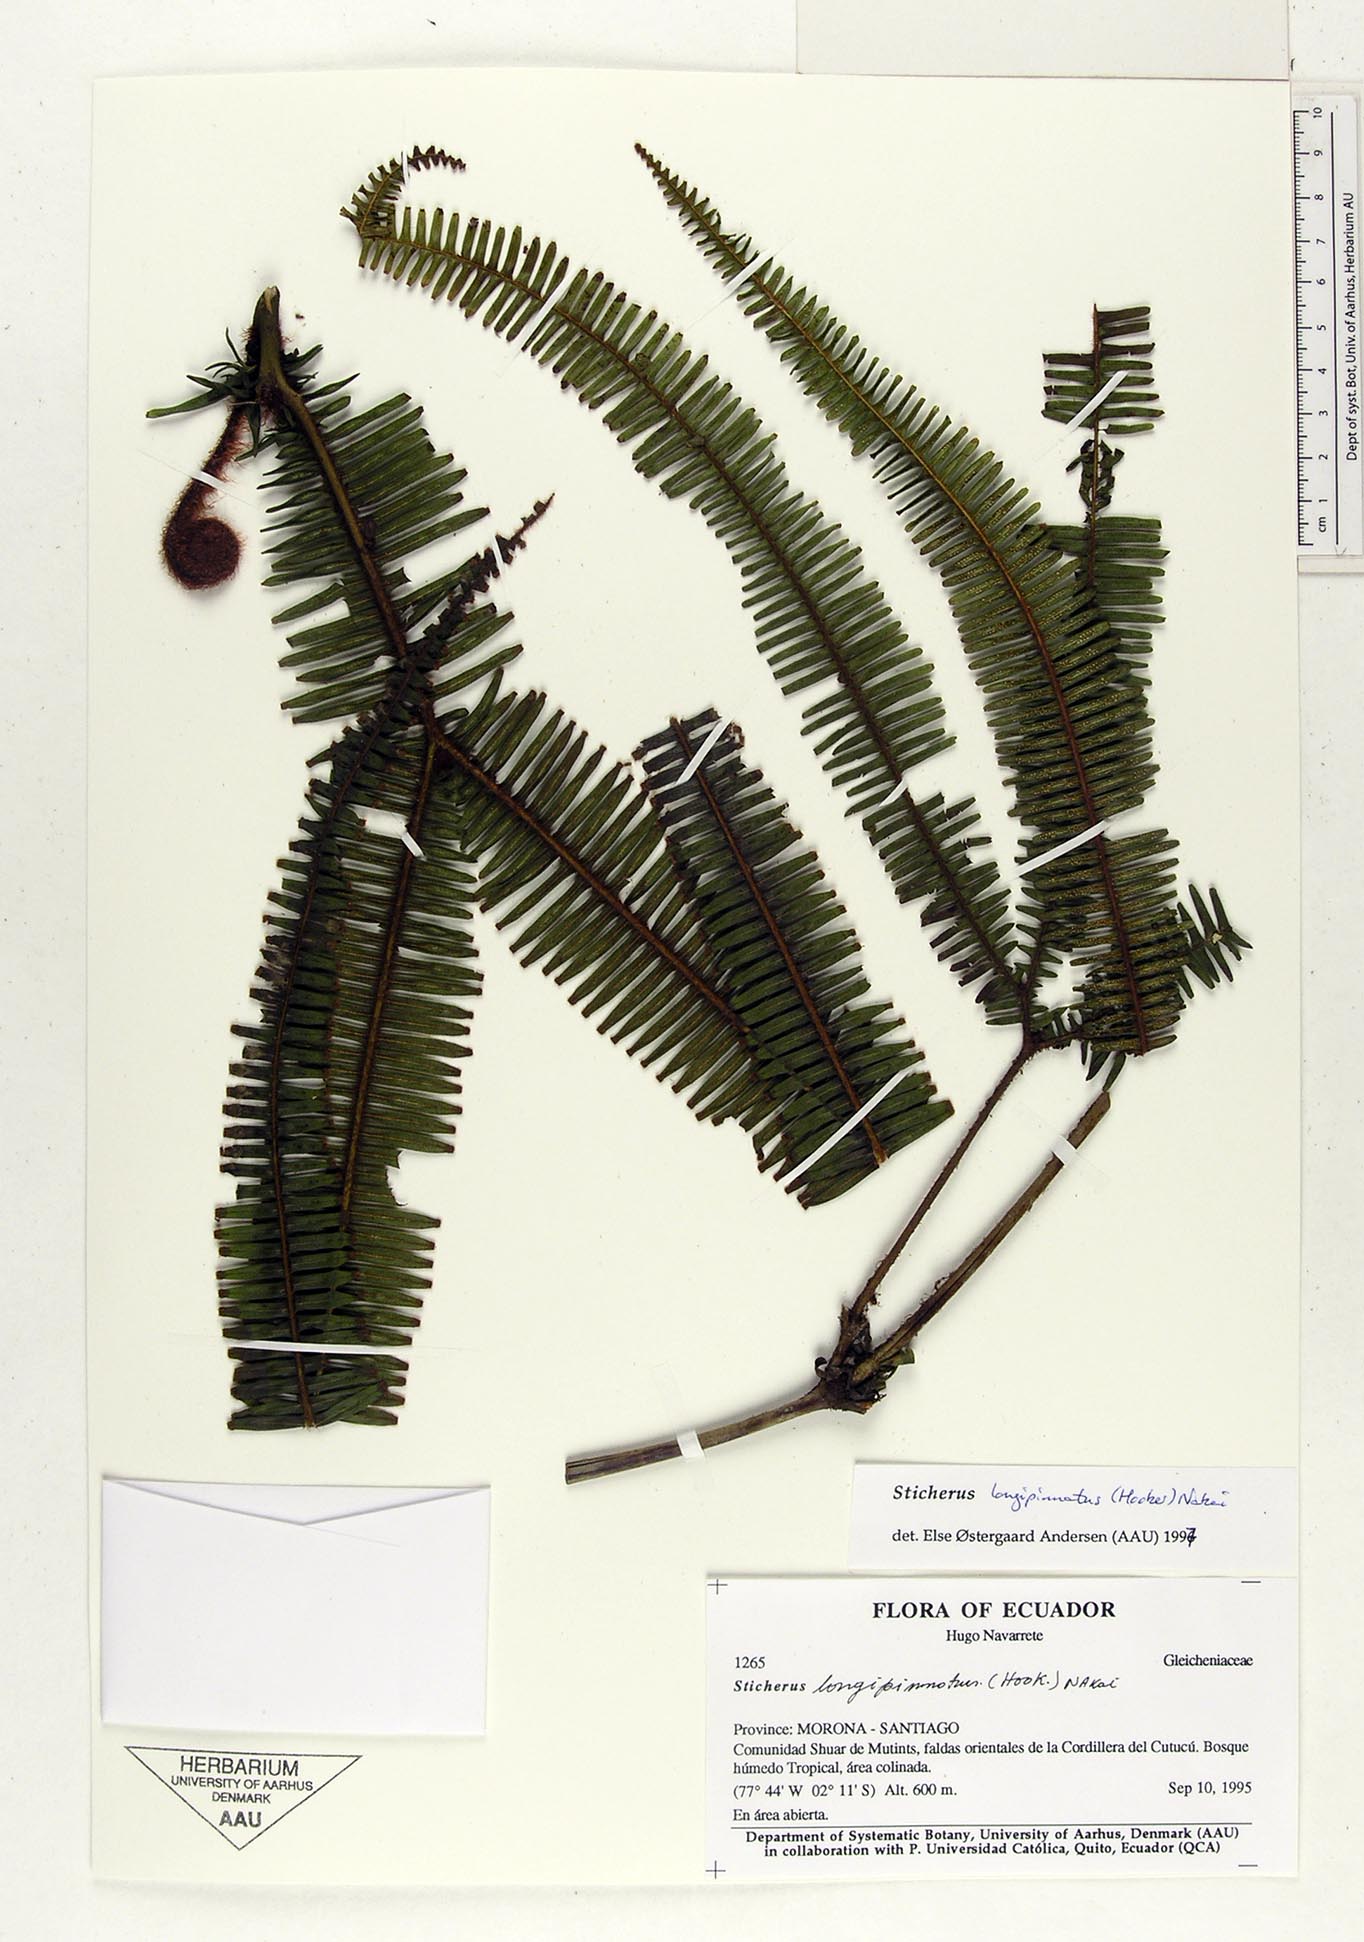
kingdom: Plantae
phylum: Tracheophyta
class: Polypodiopsida
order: Gleicheniales
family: Gleicheniaceae
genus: Sticherus
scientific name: Sticherus longipinnatus
